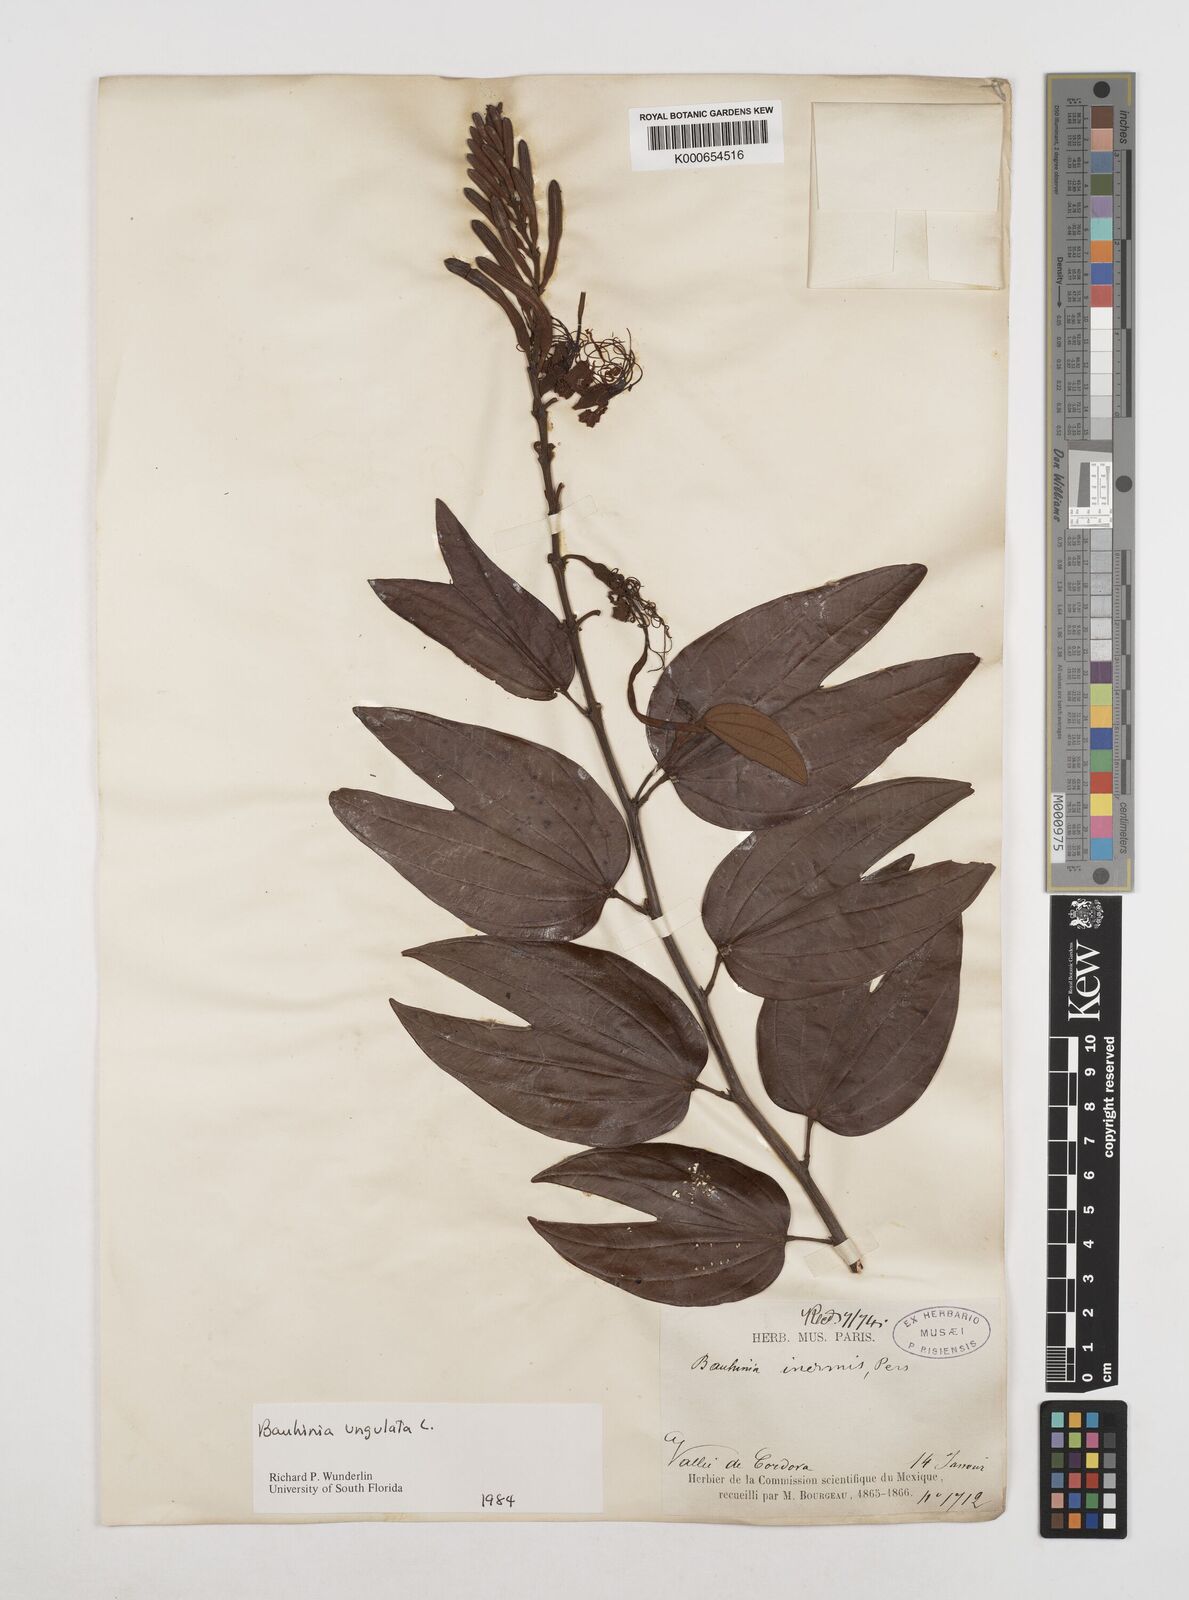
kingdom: Plantae
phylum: Tracheophyta
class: Magnoliopsida
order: Fabales
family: Fabaceae
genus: Bauhinia
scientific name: Bauhinia ungulata
